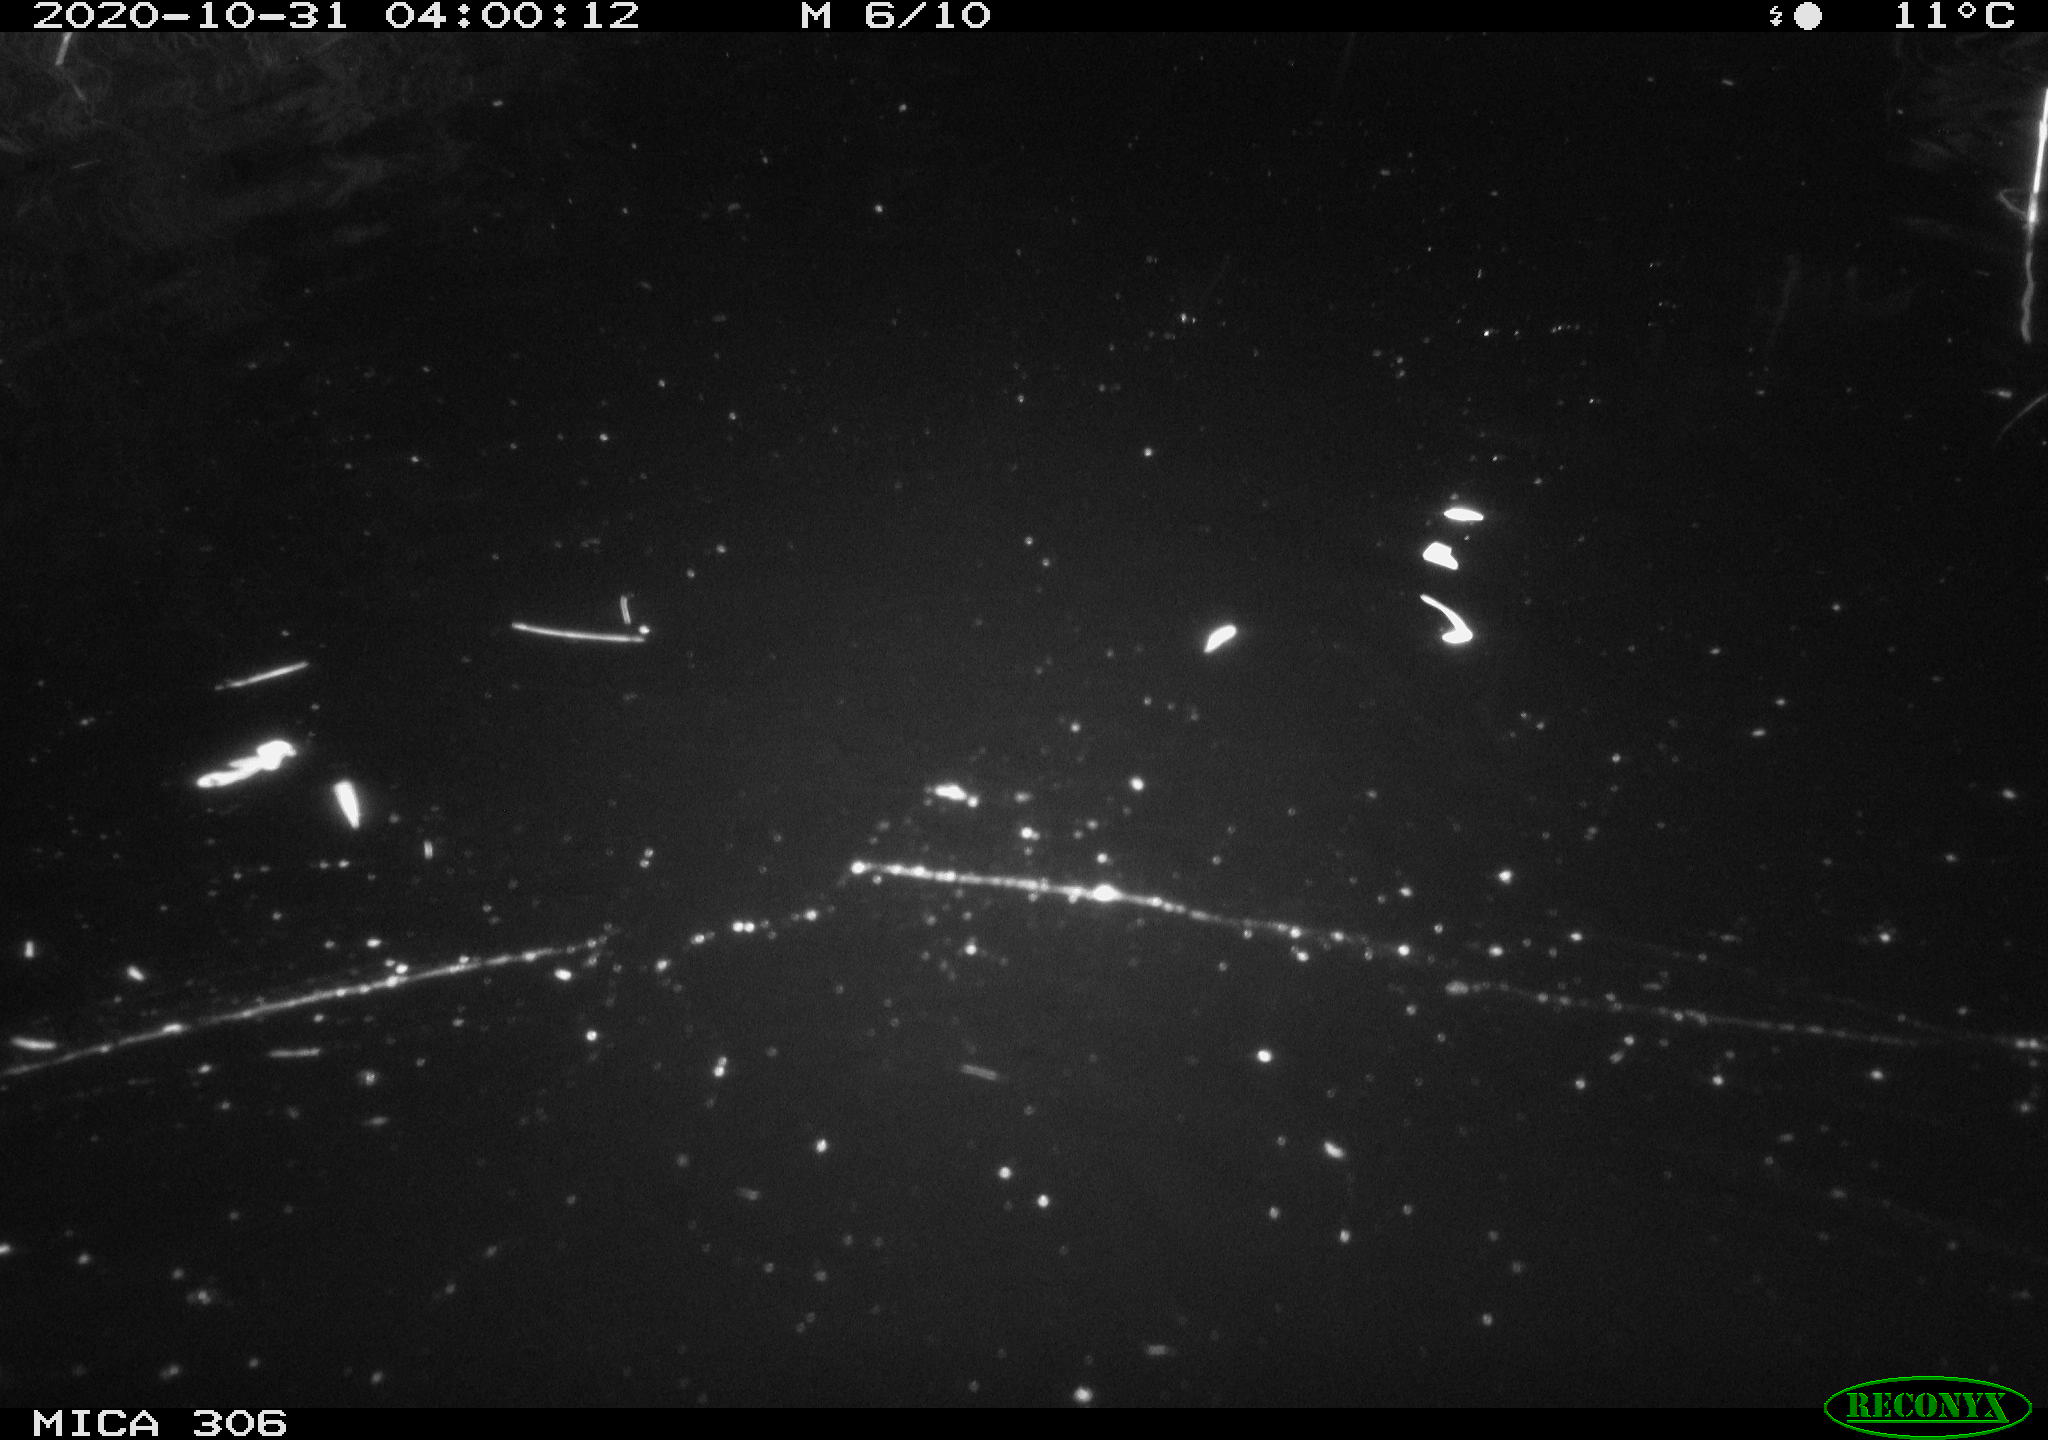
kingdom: Animalia
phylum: Chordata
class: Mammalia
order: Rodentia
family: Cricetidae
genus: Ondatra
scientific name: Ondatra zibethicus
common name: Muskrat
